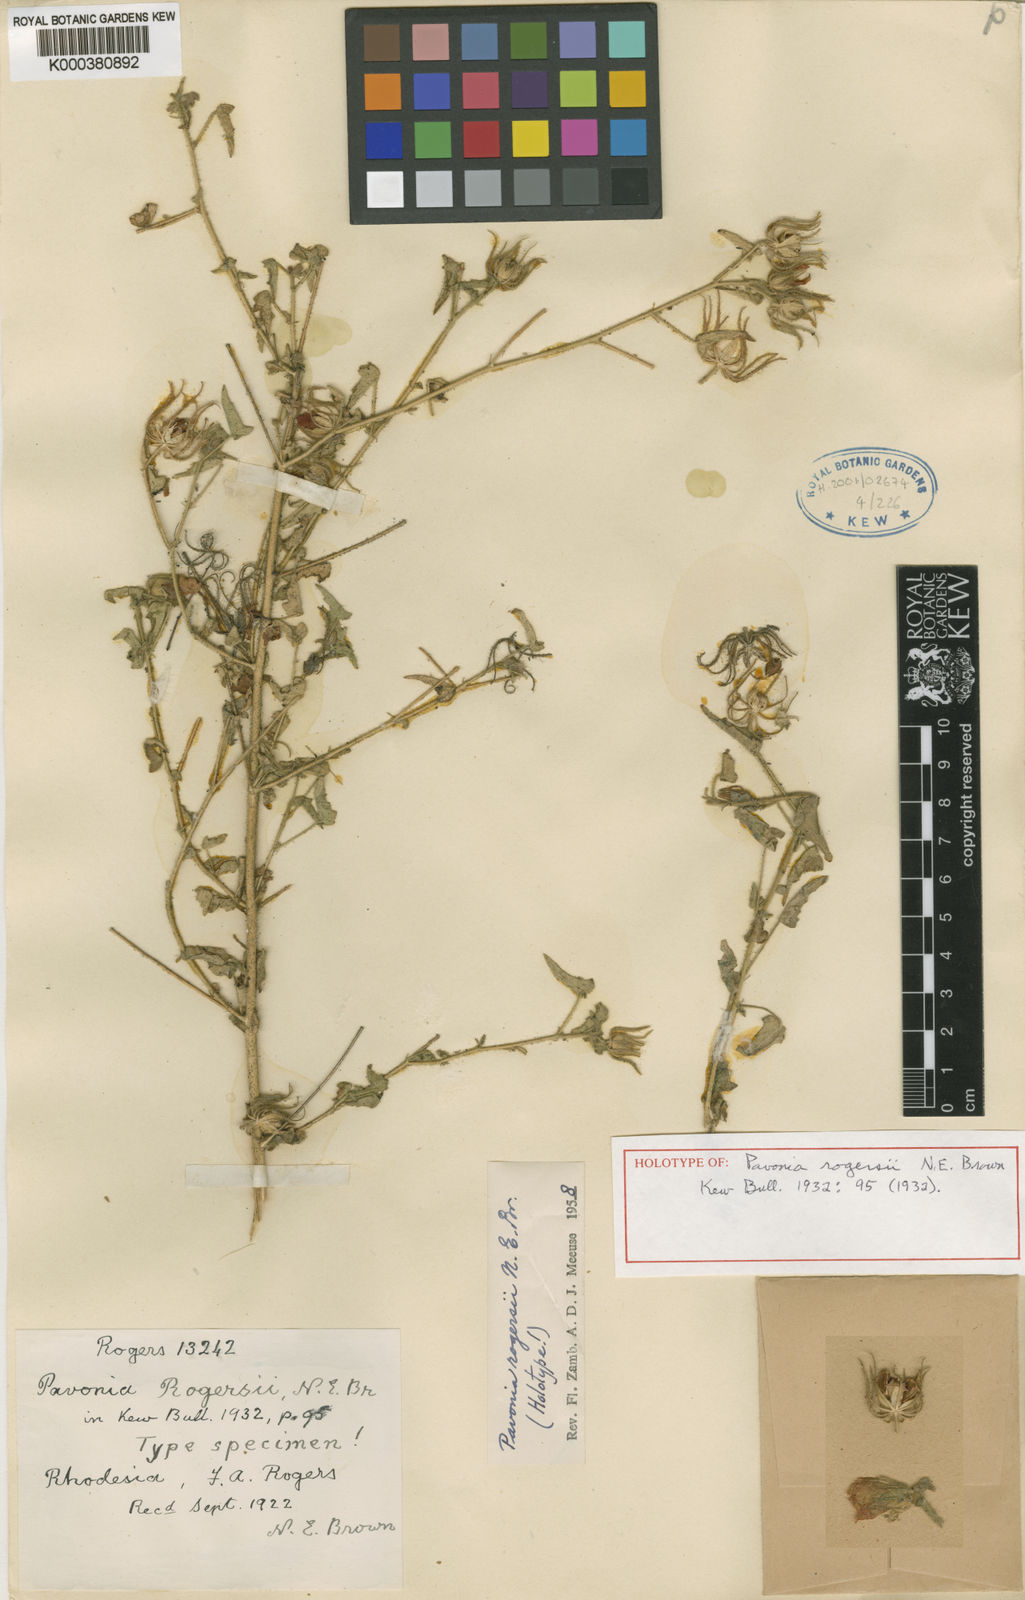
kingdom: Plantae
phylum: Tracheophyta
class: Magnoliopsida
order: Malvales
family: Malvaceae
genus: Pavonia
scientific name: Pavonia rogersii
